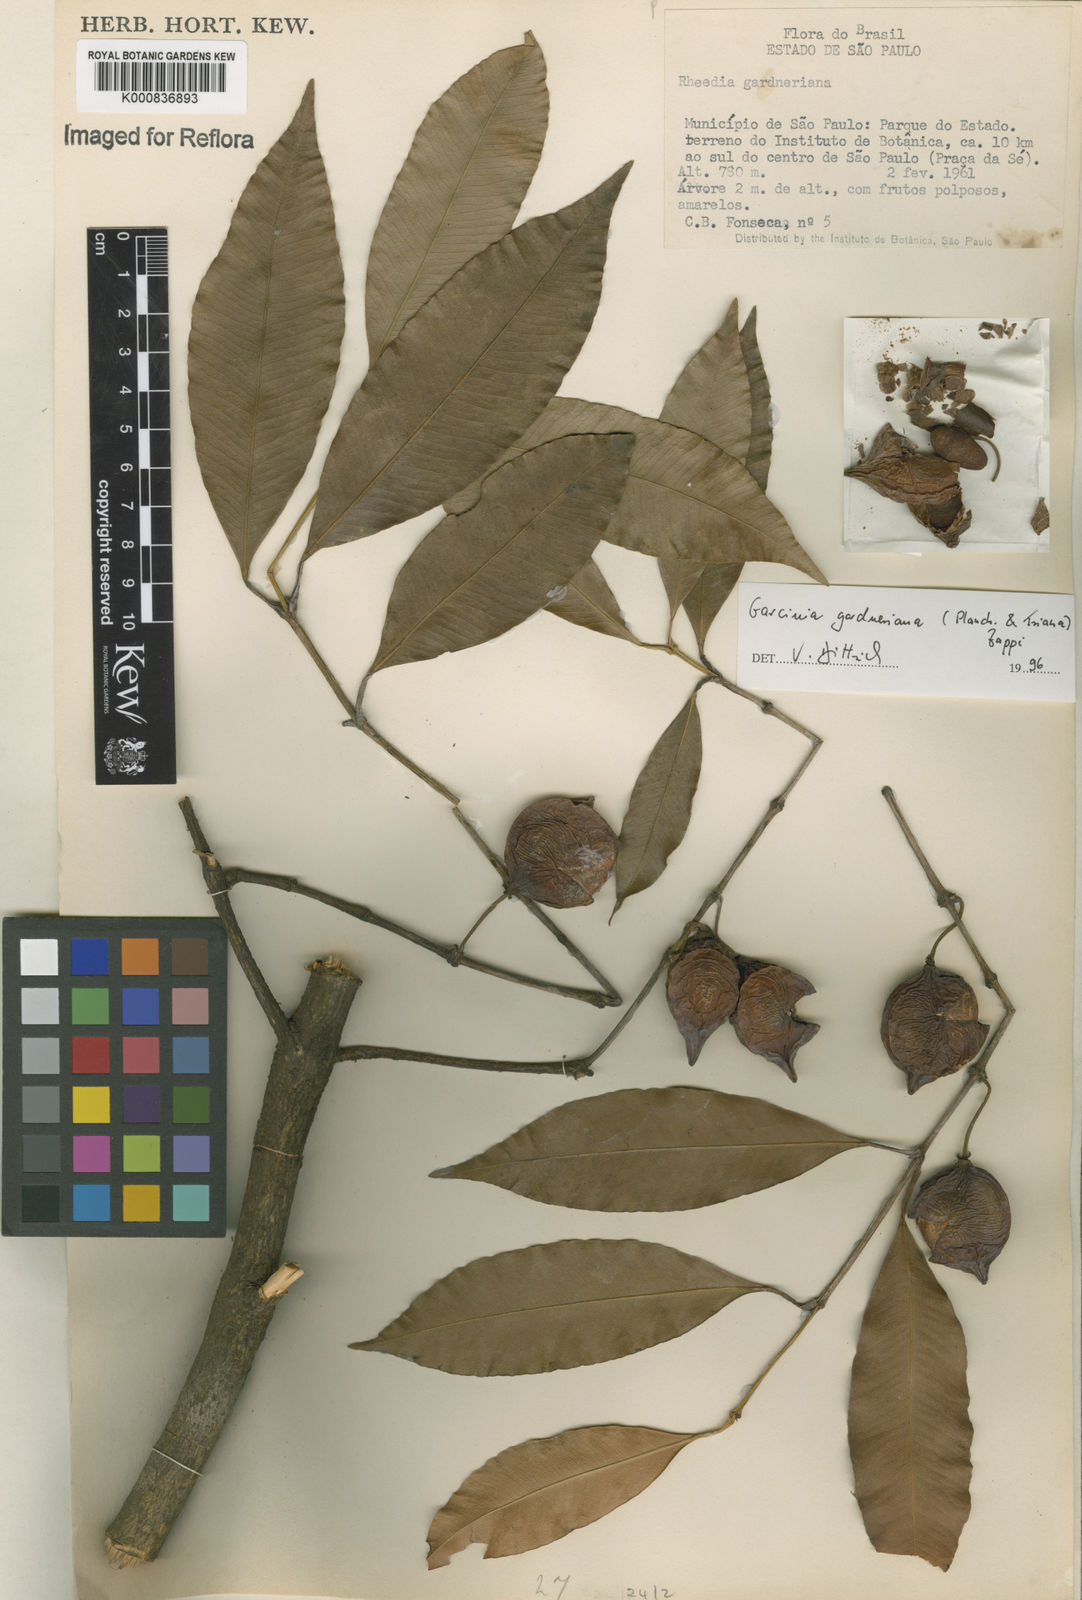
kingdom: Plantae
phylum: Tracheophyta
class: Magnoliopsida
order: Malpighiales
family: Clusiaceae
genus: Garcinia
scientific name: Garcinia gardneriana
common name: Achacha
